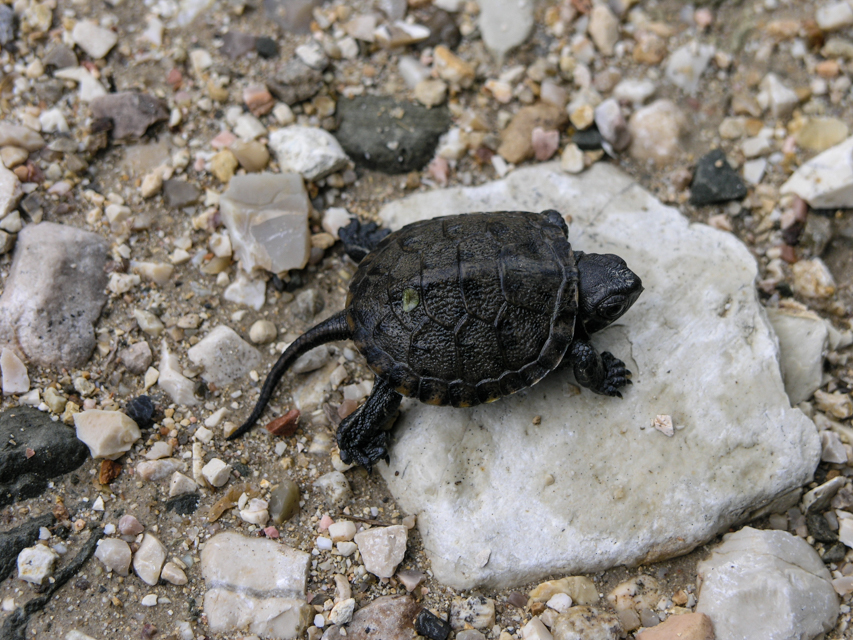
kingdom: Animalia
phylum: Chordata
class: Testudines
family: Emydidae
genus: Emys
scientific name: Emys orbicularis
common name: European pond turtle
